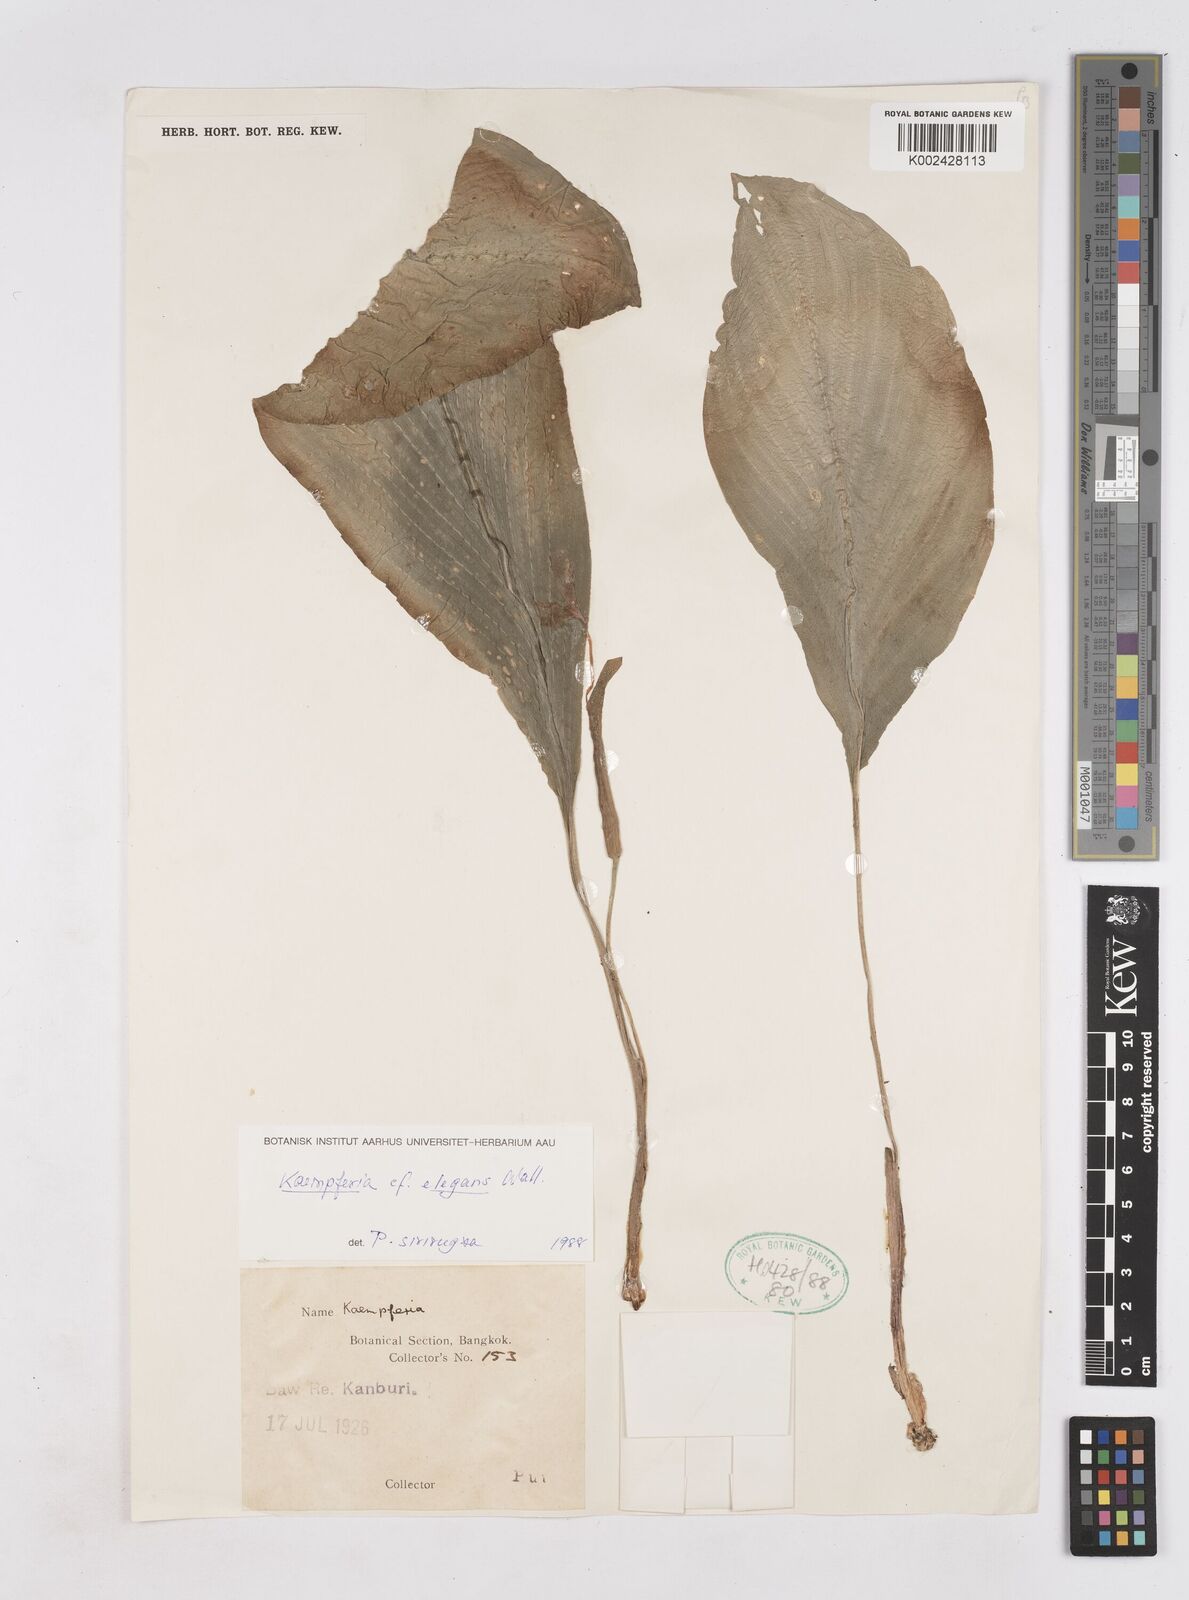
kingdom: Plantae
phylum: Tracheophyta
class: Liliopsida
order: Zingiberales
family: Zingiberaceae
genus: Kaempferia
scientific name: Kaempferia elegans
